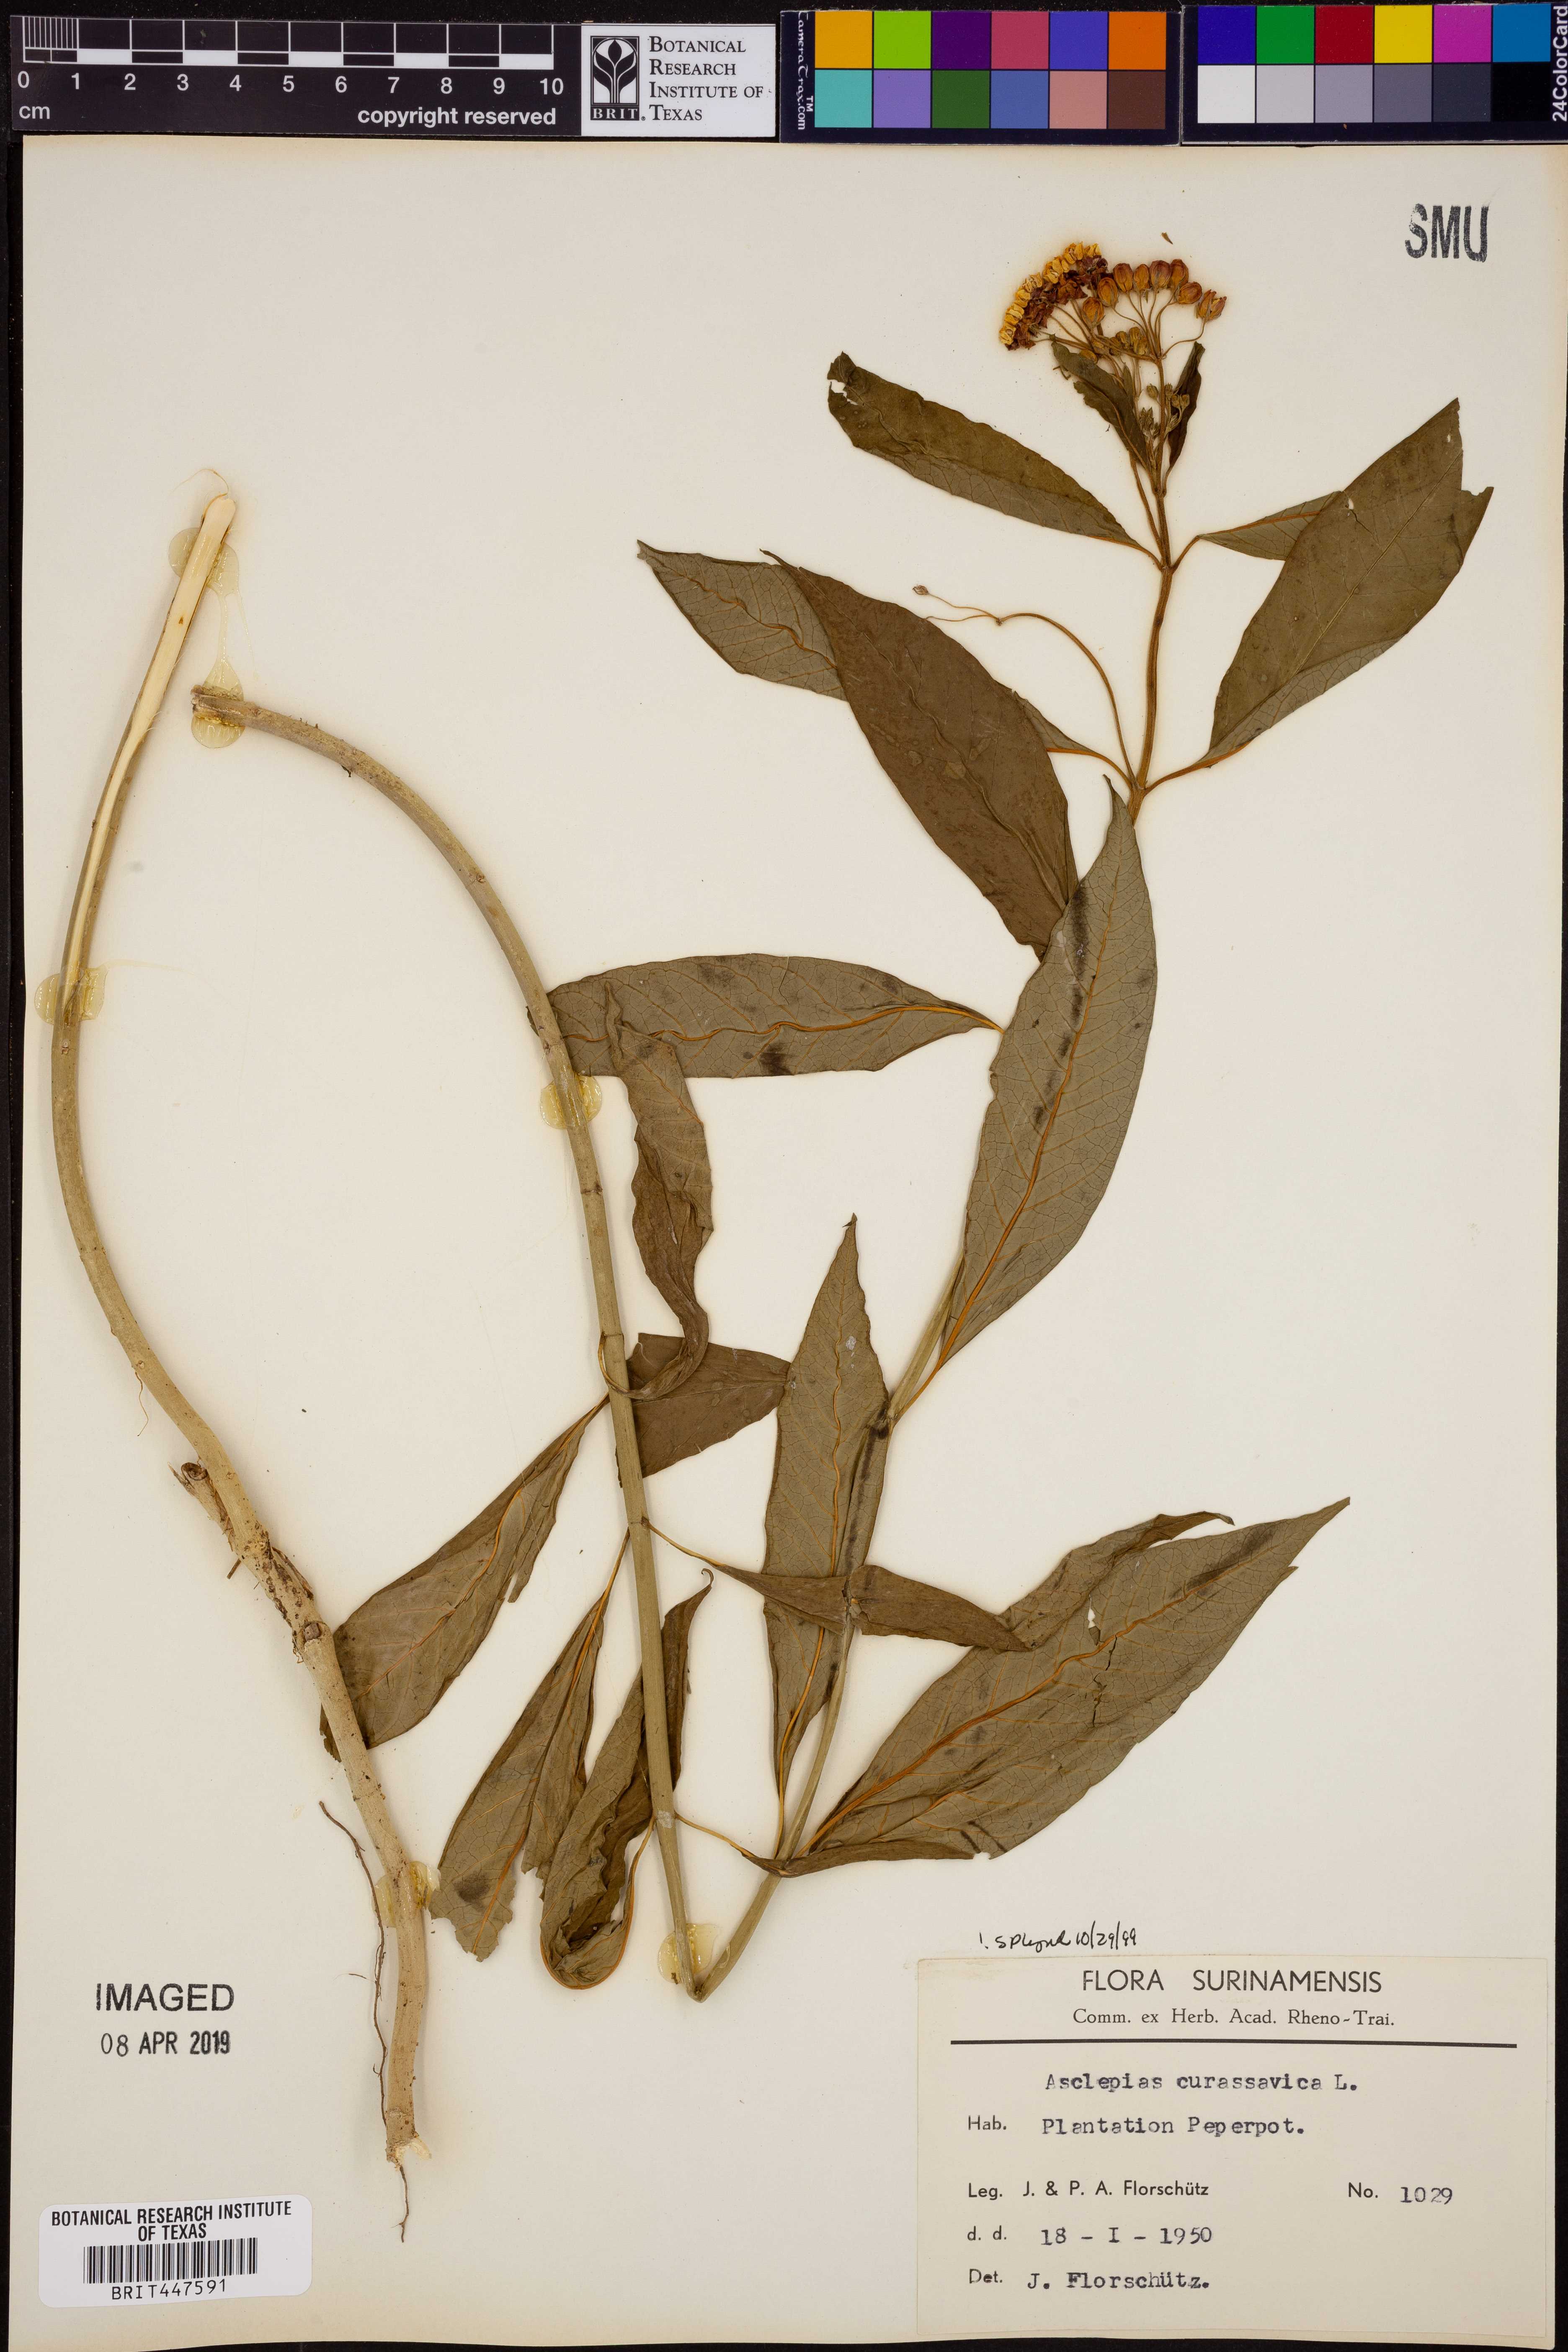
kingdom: Plantae
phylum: Tracheophyta
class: Magnoliopsida
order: Gentianales
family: Apocynaceae
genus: Asclepias
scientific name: Asclepias curassavica
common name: Bloodflower
